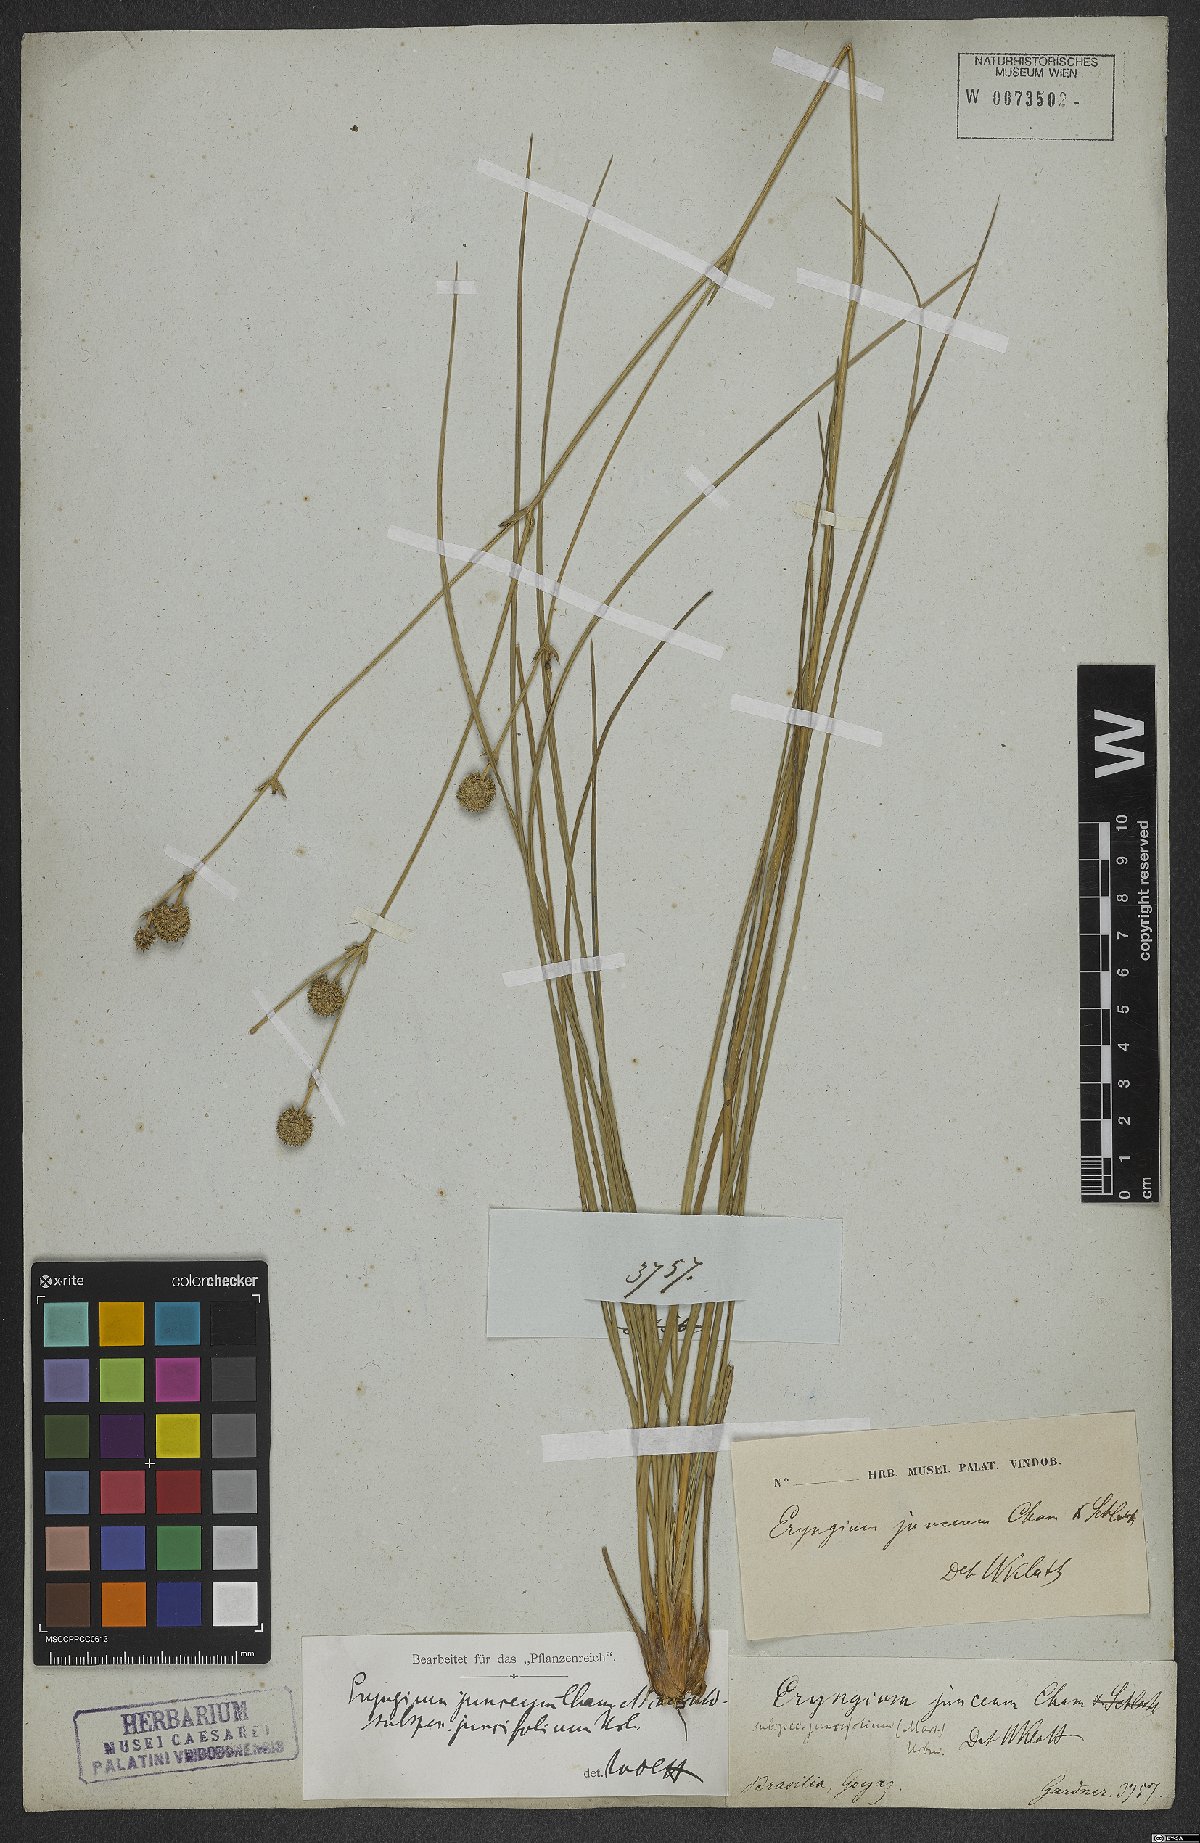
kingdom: Plantae
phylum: Tracheophyta
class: Magnoliopsida
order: Apiales
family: Apiaceae
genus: Eryngium
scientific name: Eryngium junceum
